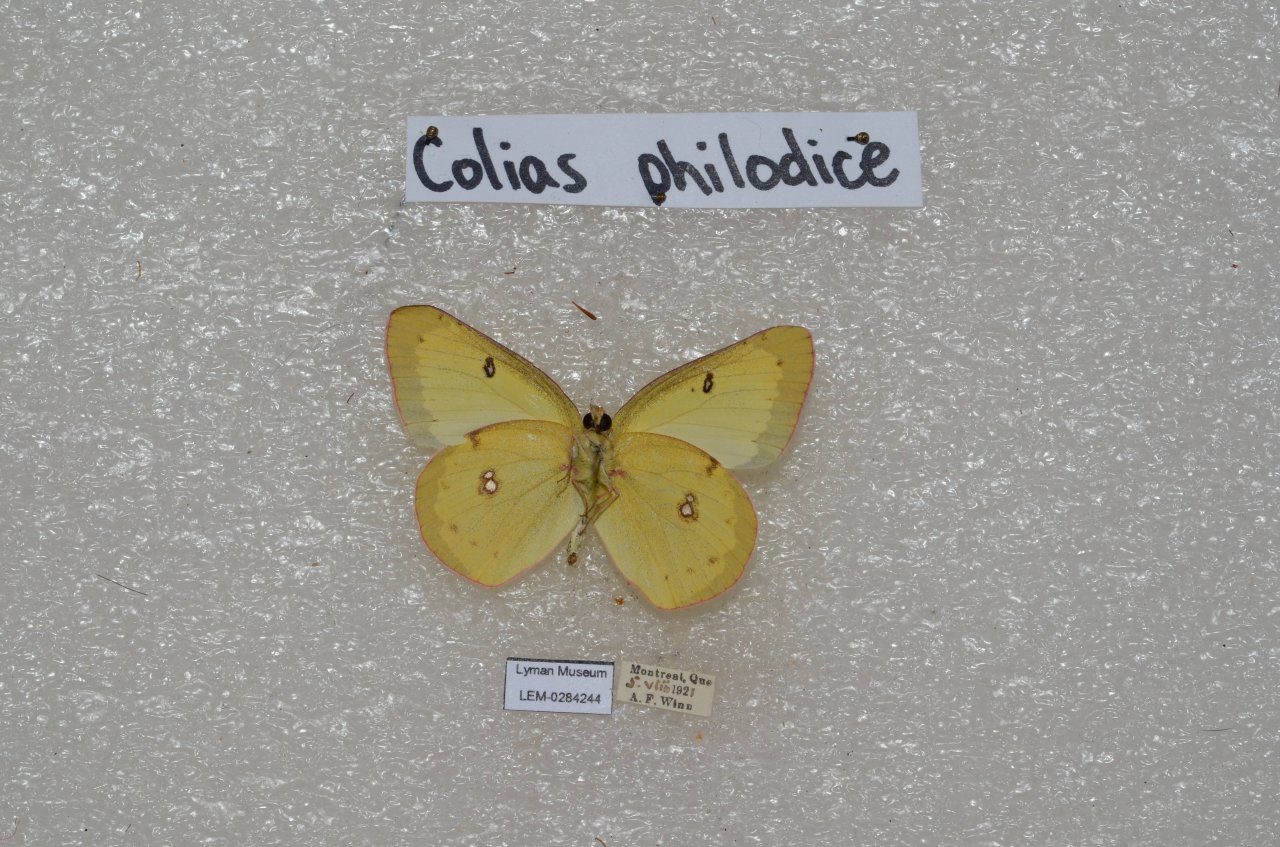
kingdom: Animalia
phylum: Arthropoda
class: Insecta
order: Lepidoptera
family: Pieridae
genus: Colias
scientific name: Colias philodice
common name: Clouded Sulphur
